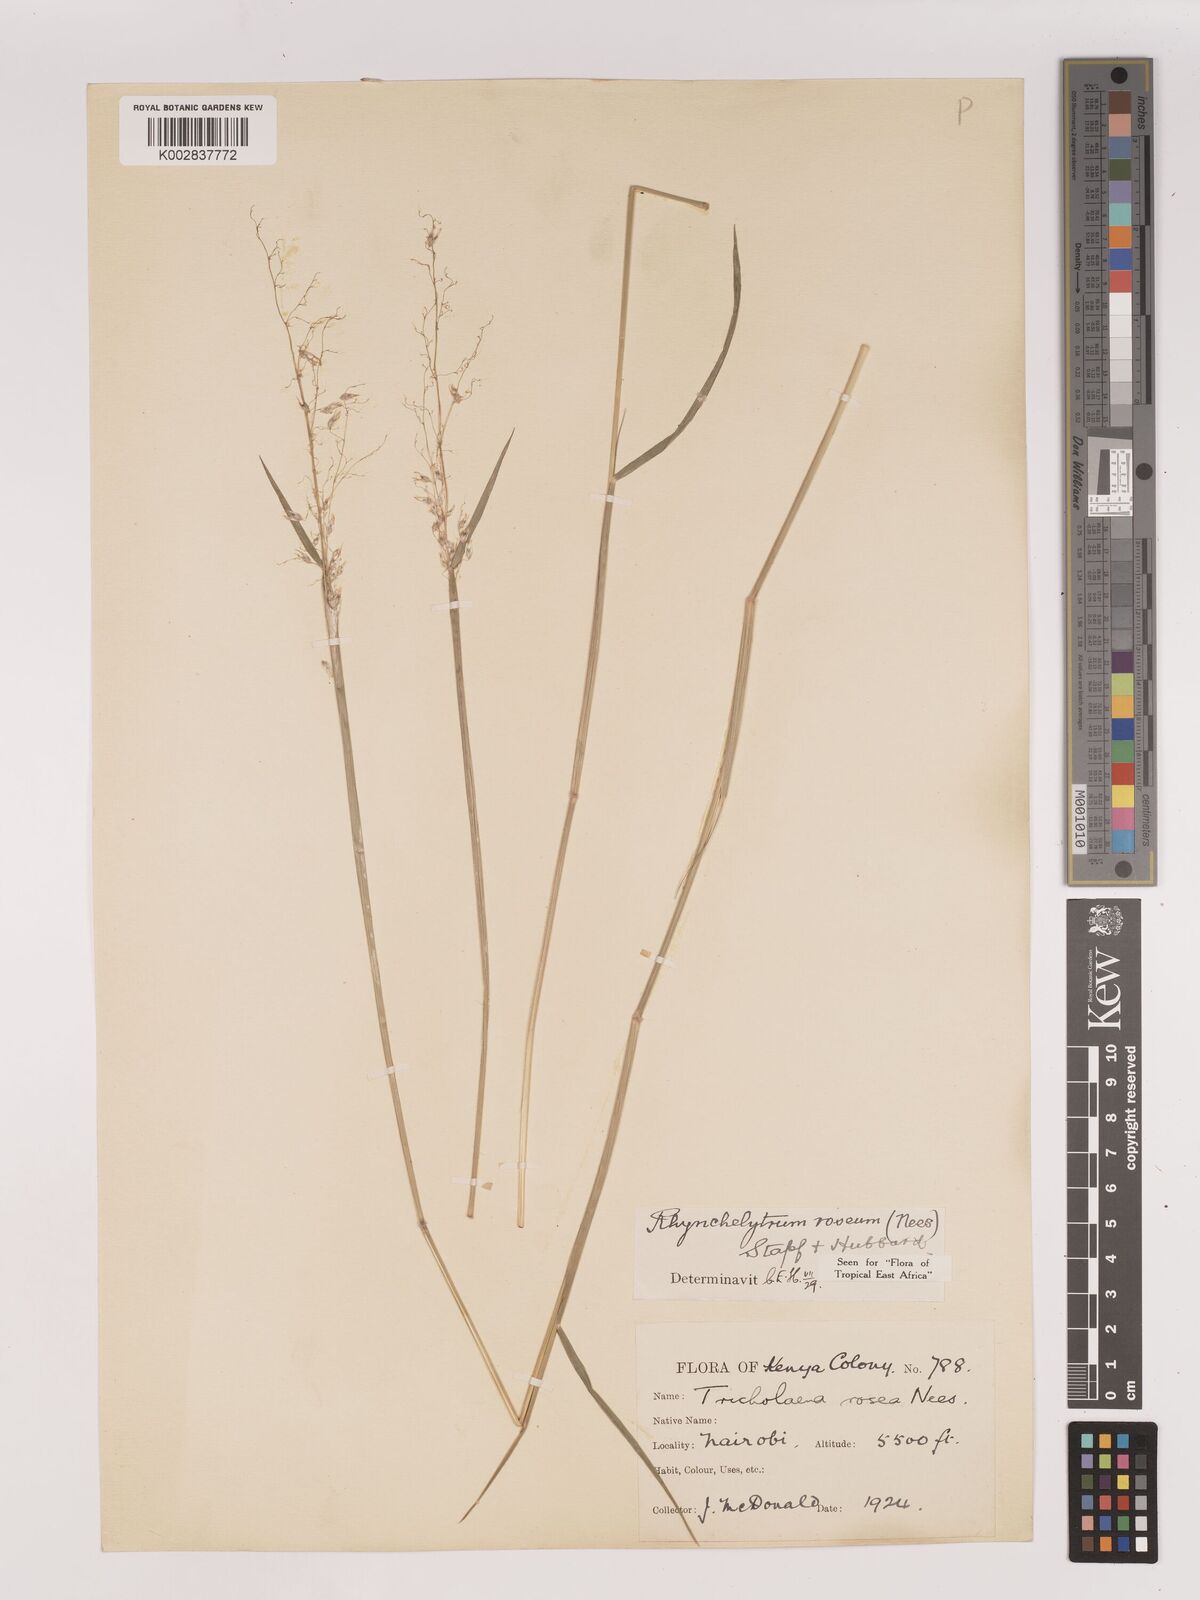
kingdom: Plantae
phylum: Tracheophyta
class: Liliopsida
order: Poales
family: Poaceae
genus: Melinis
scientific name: Melinis repens
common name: Rose natal grass
